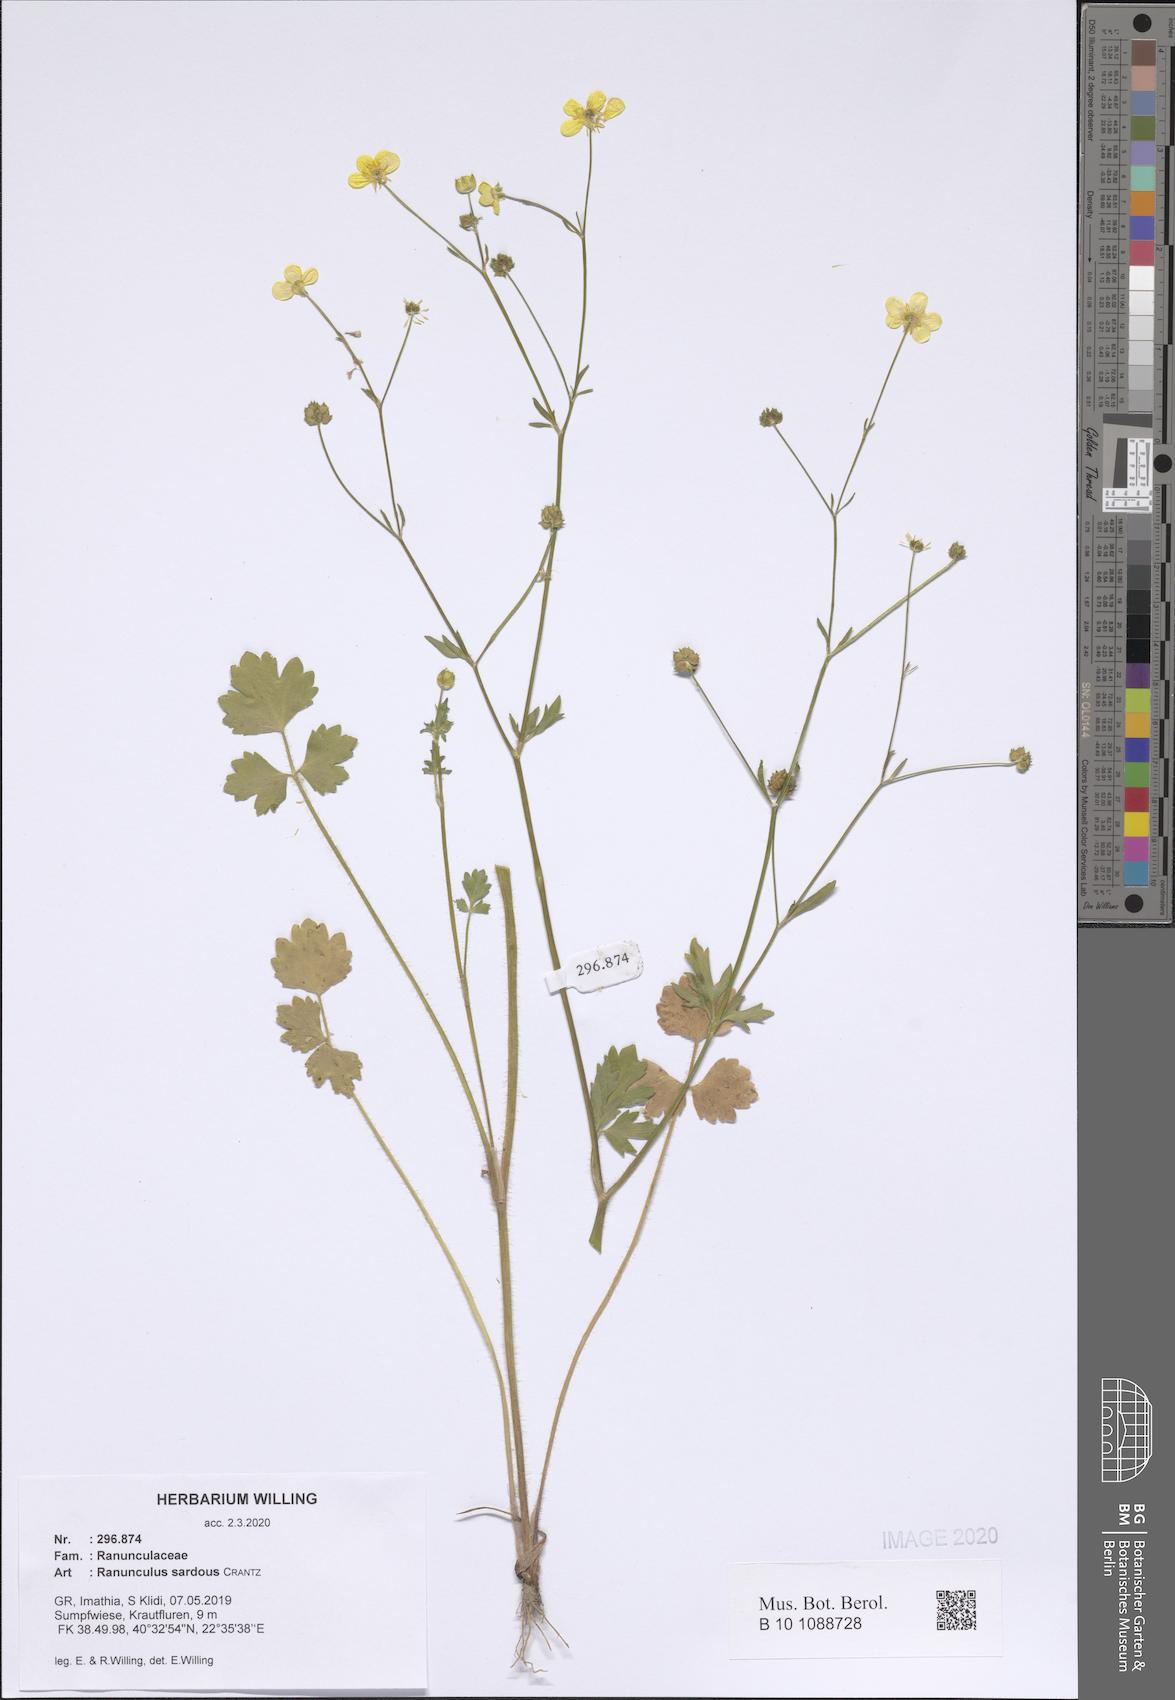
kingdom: Plantae
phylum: Tracheophyta
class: Magnoliopsida
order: Ranunculales
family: Ranunculaceae
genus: Ranunculus
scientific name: Ranunculus sardous
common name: Hairy buttercup
